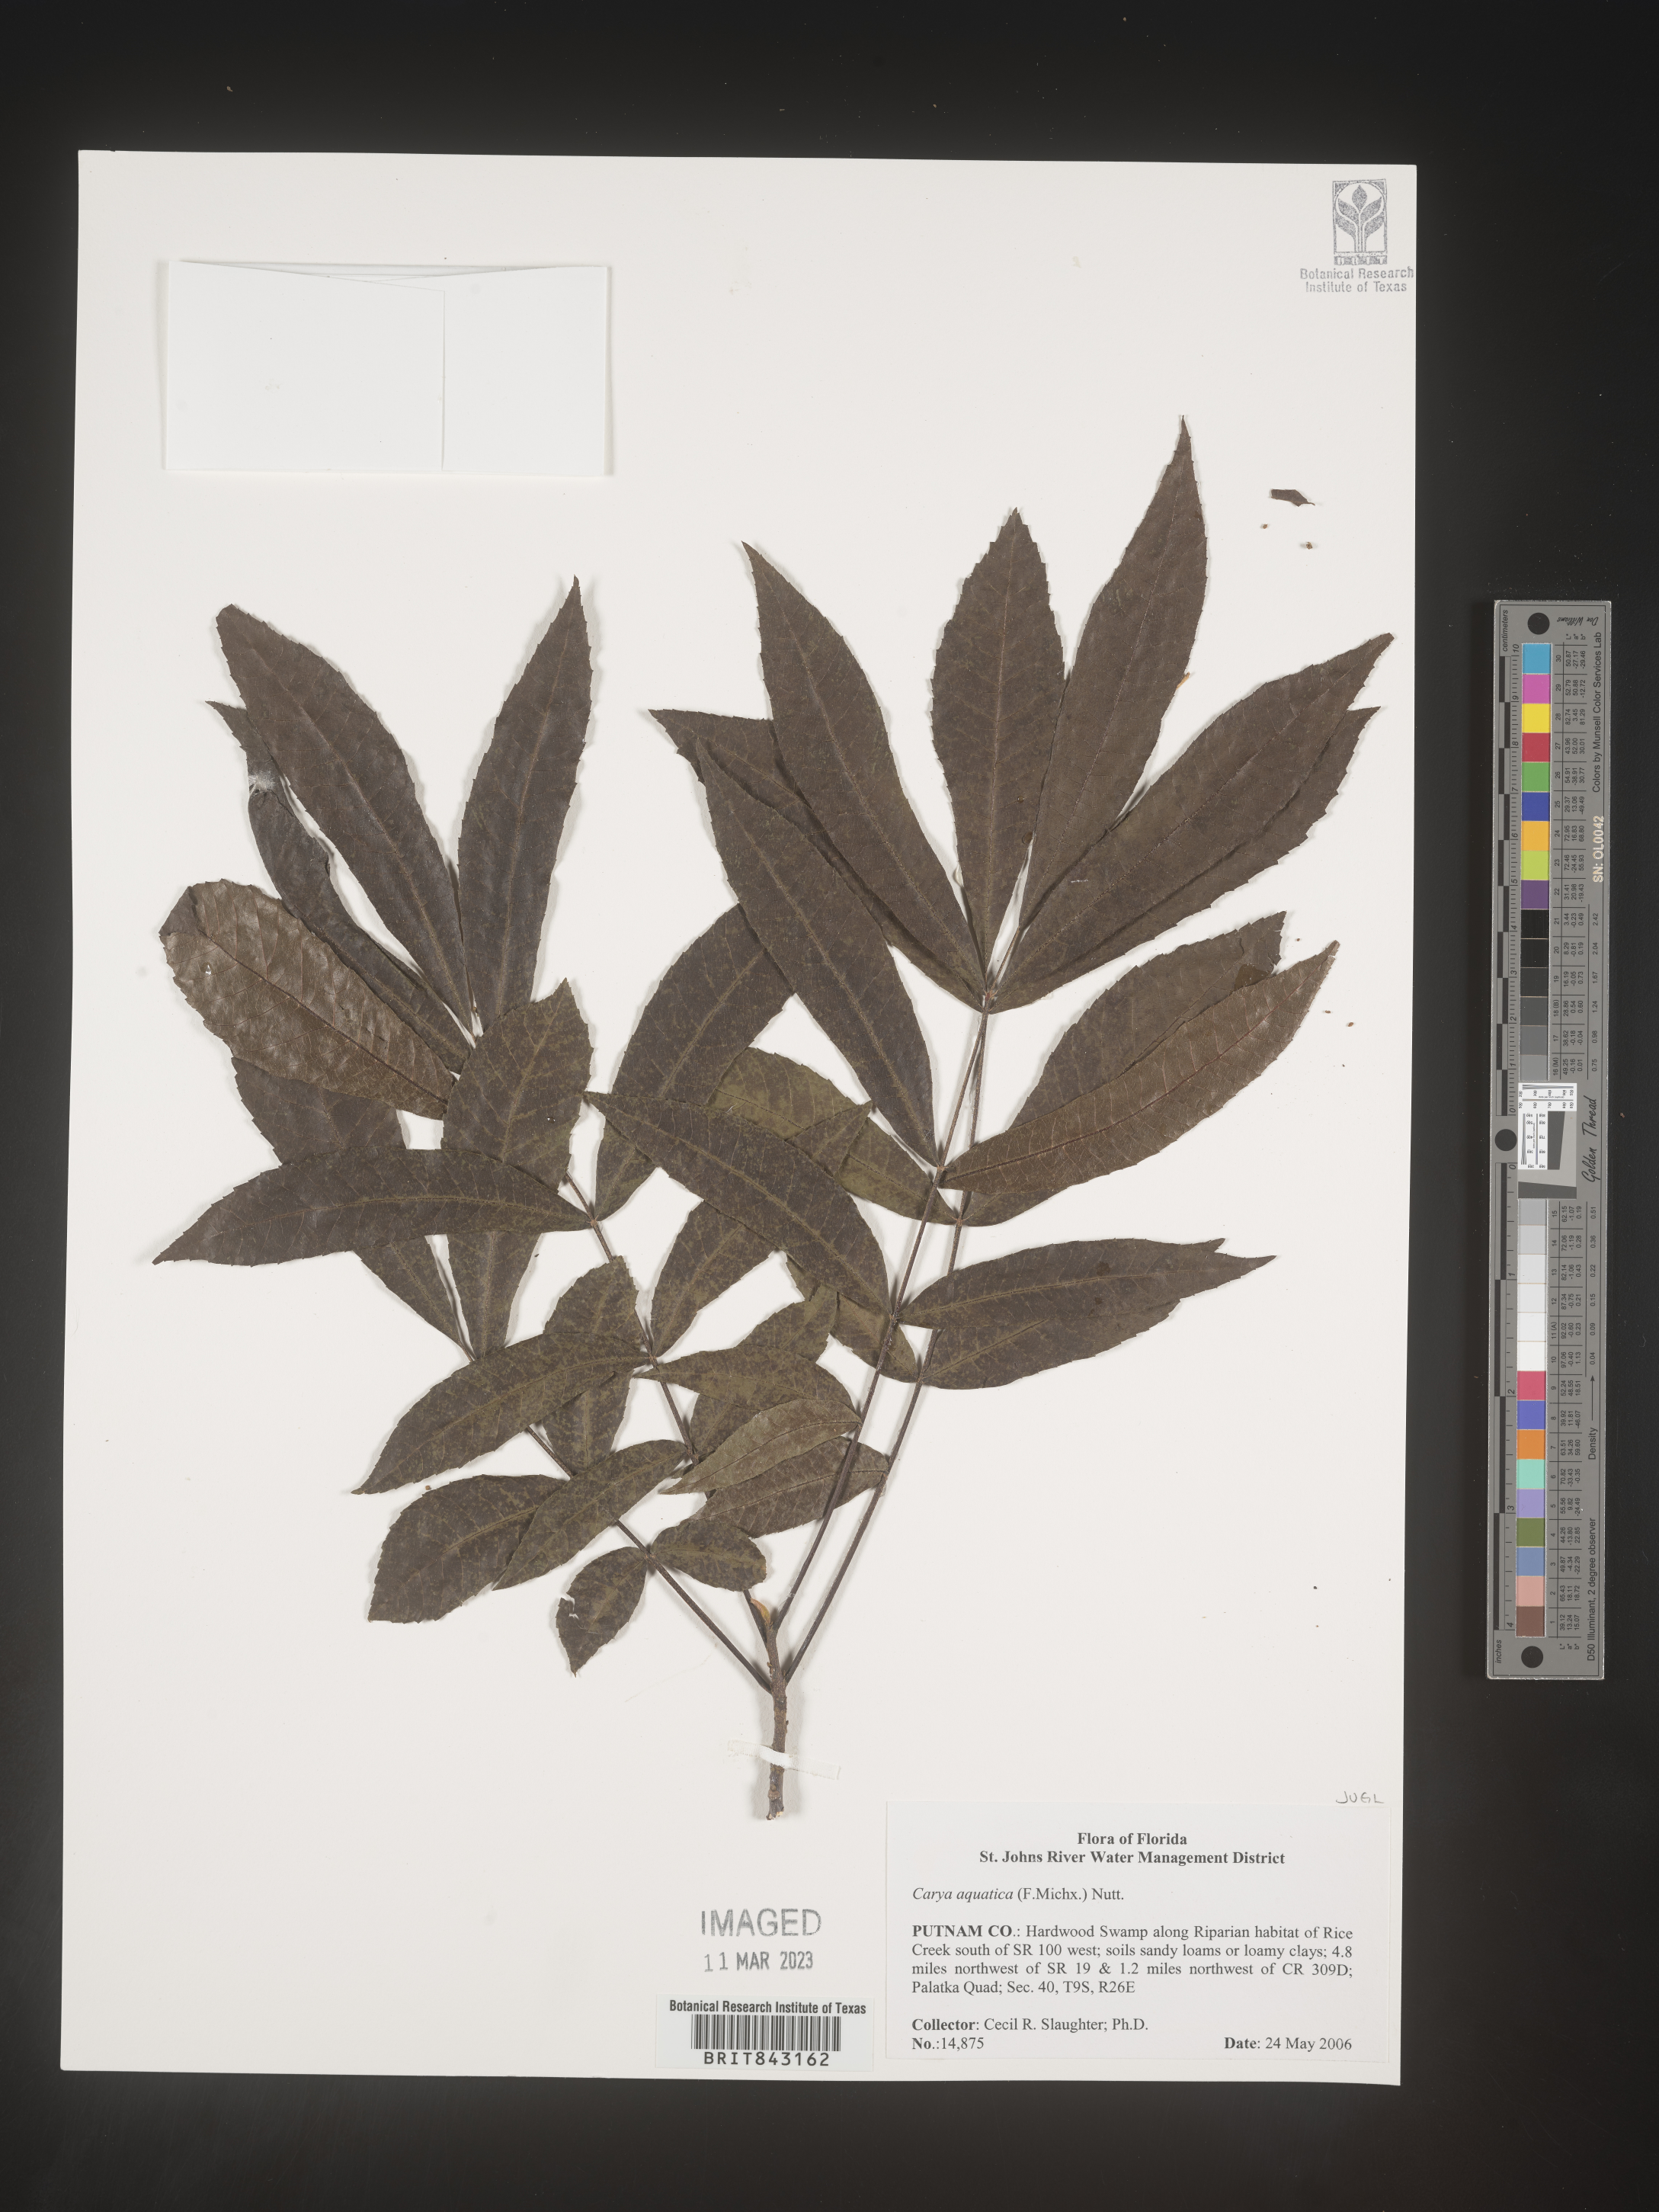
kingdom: Plantae
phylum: Tracheophyta
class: Magnoliopsida
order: Fagales
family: Juglandaceae
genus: Carya
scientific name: Carya aquatica
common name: Water hickory
